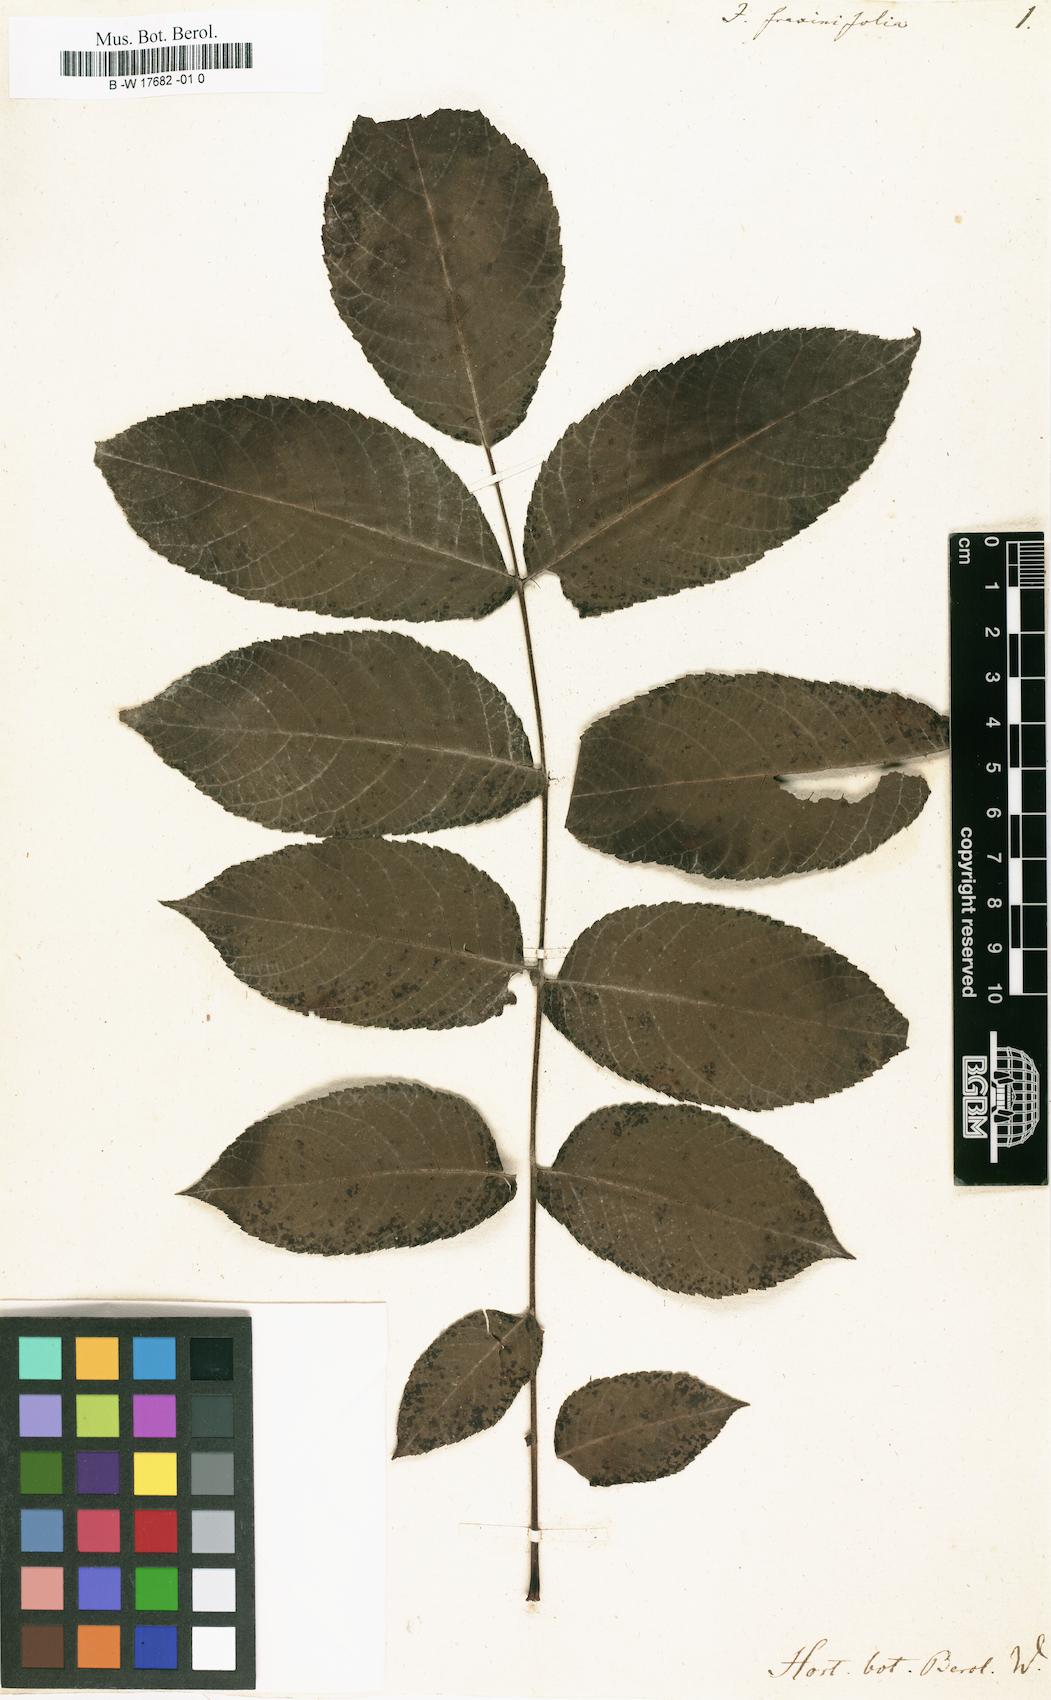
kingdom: Plantae
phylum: Tracheophyta
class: Magnoliopsida
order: Fagales
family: Juglandaceae
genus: Pterocarya
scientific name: Pterocarya fraxinifolia
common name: Caucasian wingnut
